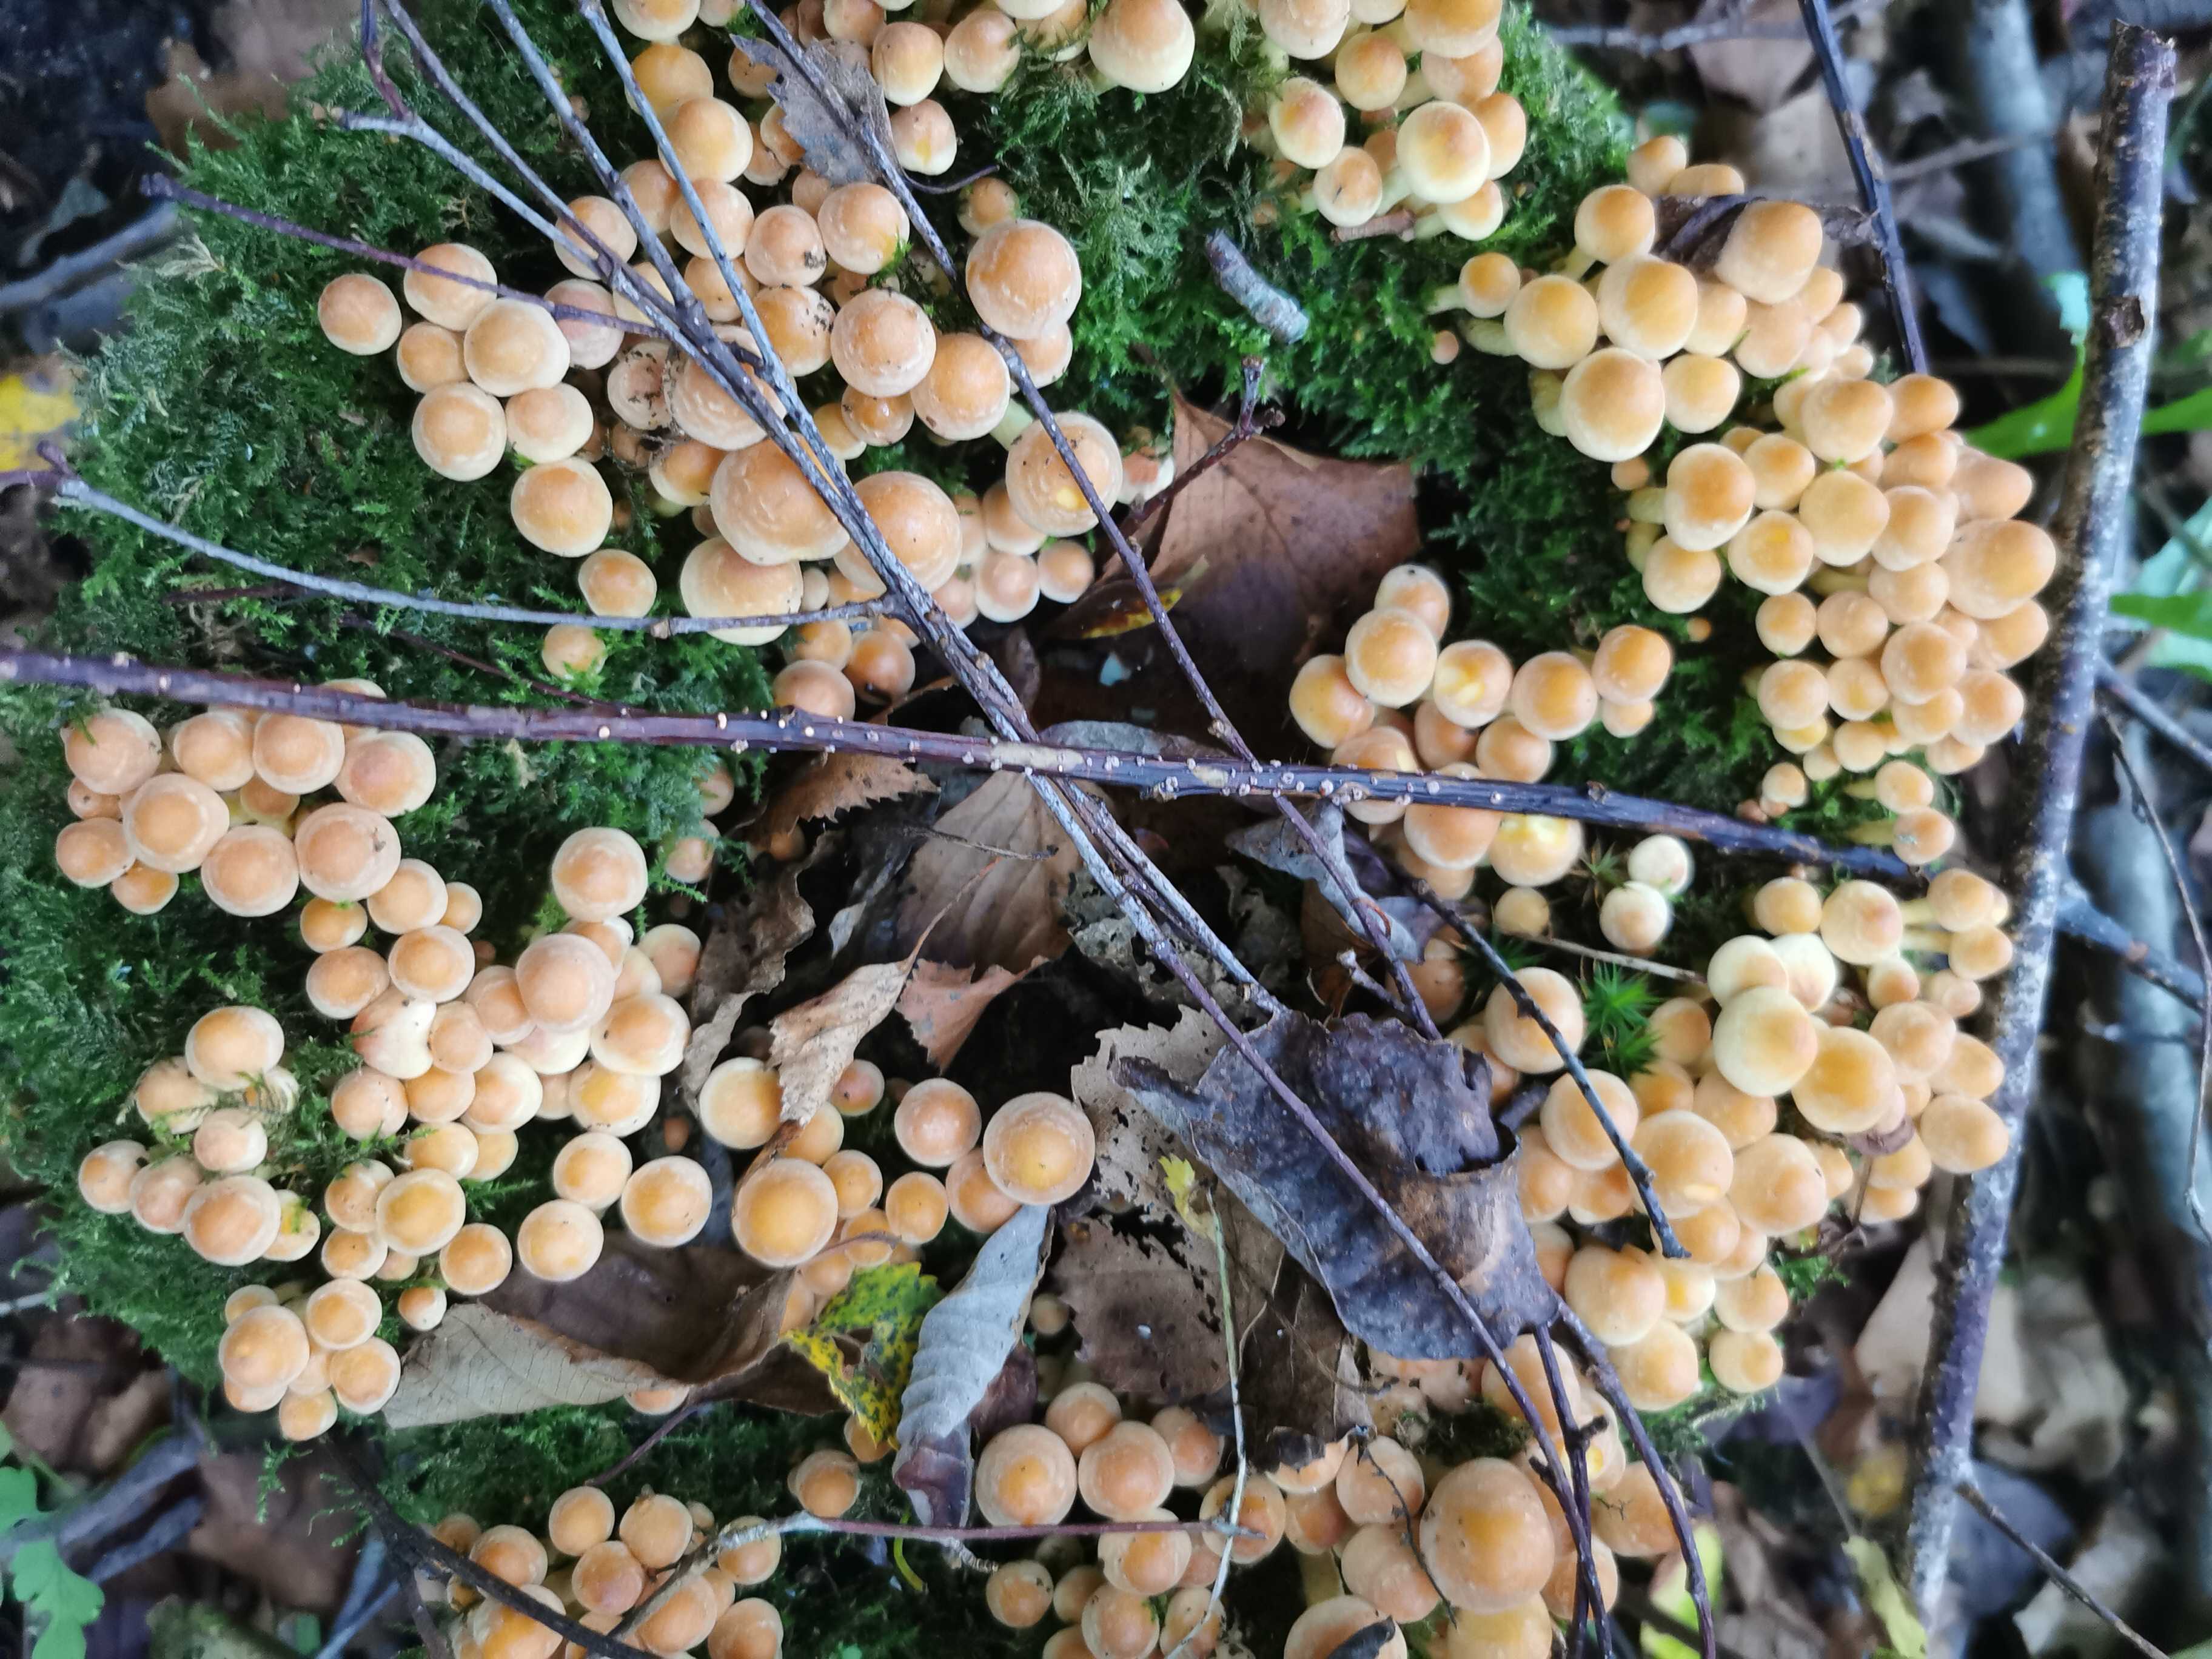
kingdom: Fungi
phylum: Basidiomycota
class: Agaricomycetes
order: Agaricales
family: Strophariaceae
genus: Hypholoma
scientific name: Hypholoma fasciculare
